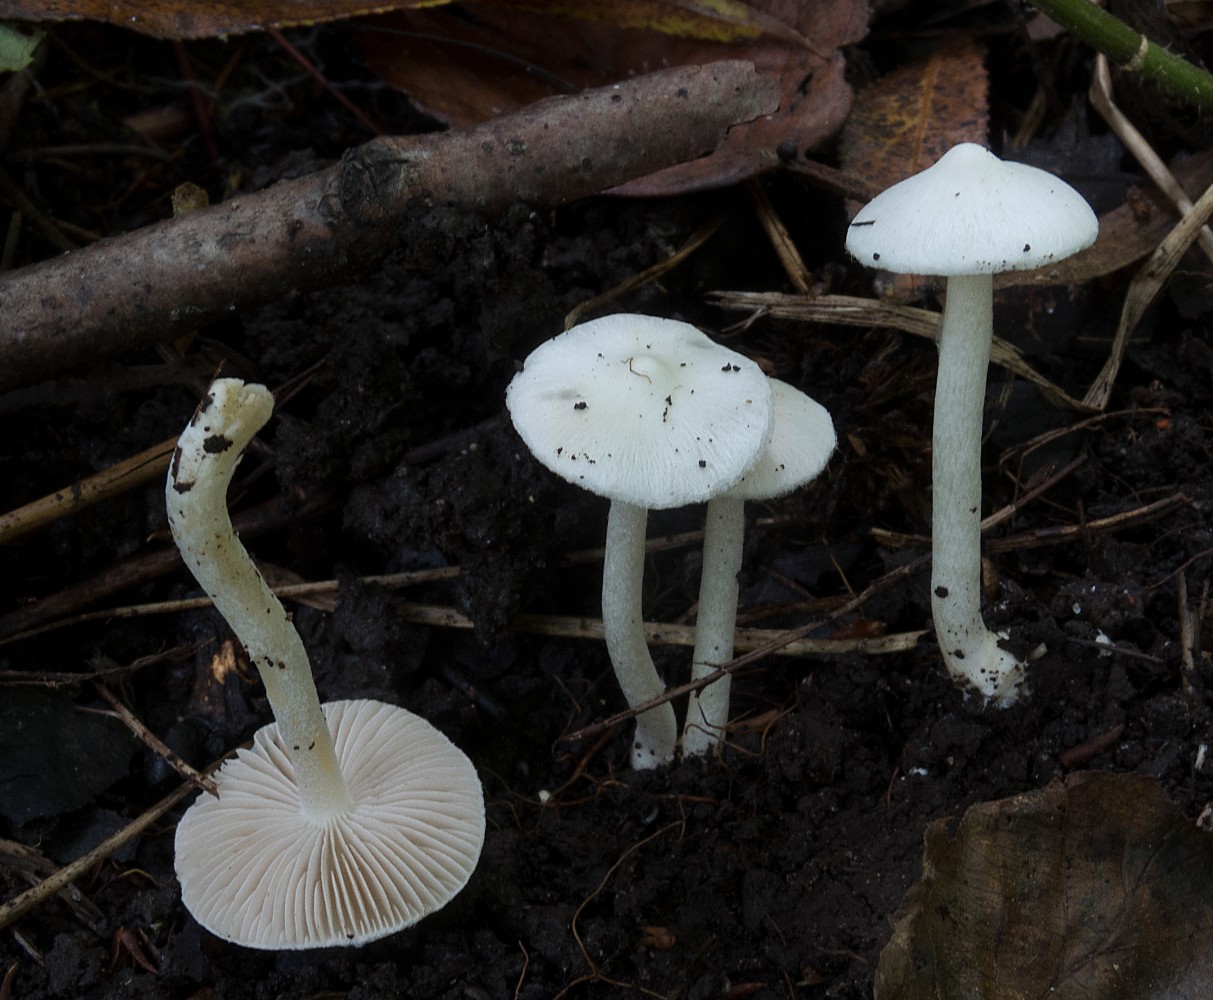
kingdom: Fungi
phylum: Basidiomycota
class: Agaricomycetes
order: Agaricales
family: Inocybaceae
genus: Inocybe
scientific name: Inocybe
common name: almindelig trævlhat
